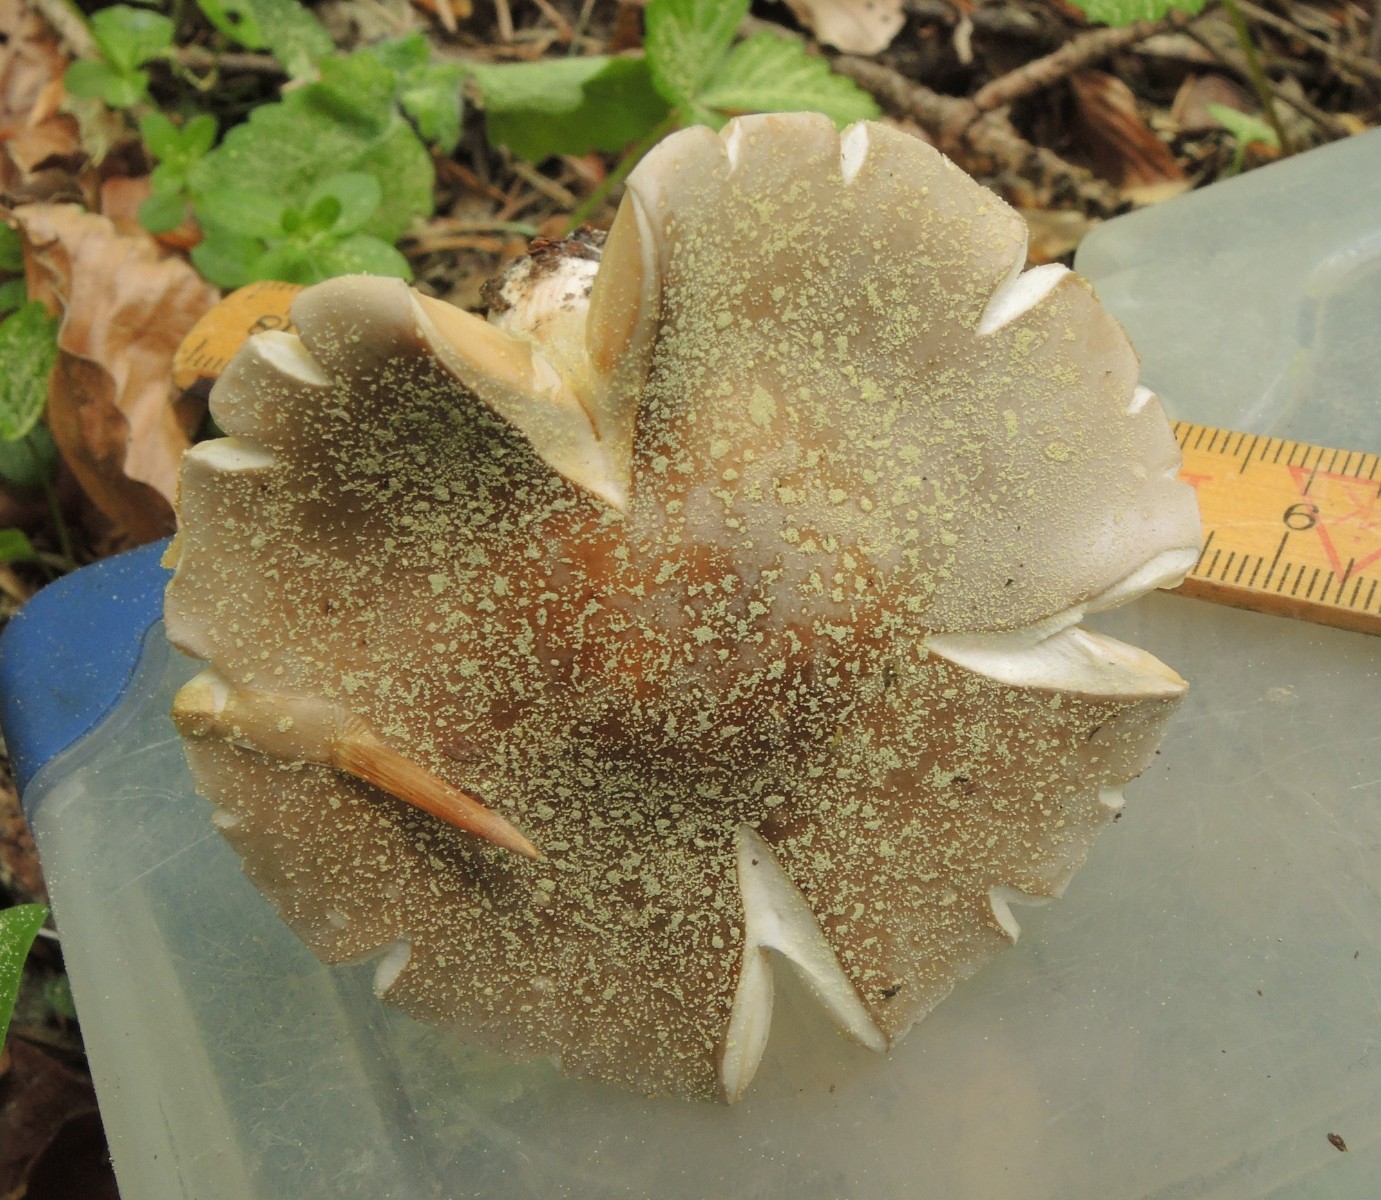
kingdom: Fungi
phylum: Basidiomycota
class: Agaricomycetes
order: Agaricales
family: Tricholomataceae
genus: Melanoleuca
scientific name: Melanoleuca cognata
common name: gyldengrå munkehat
